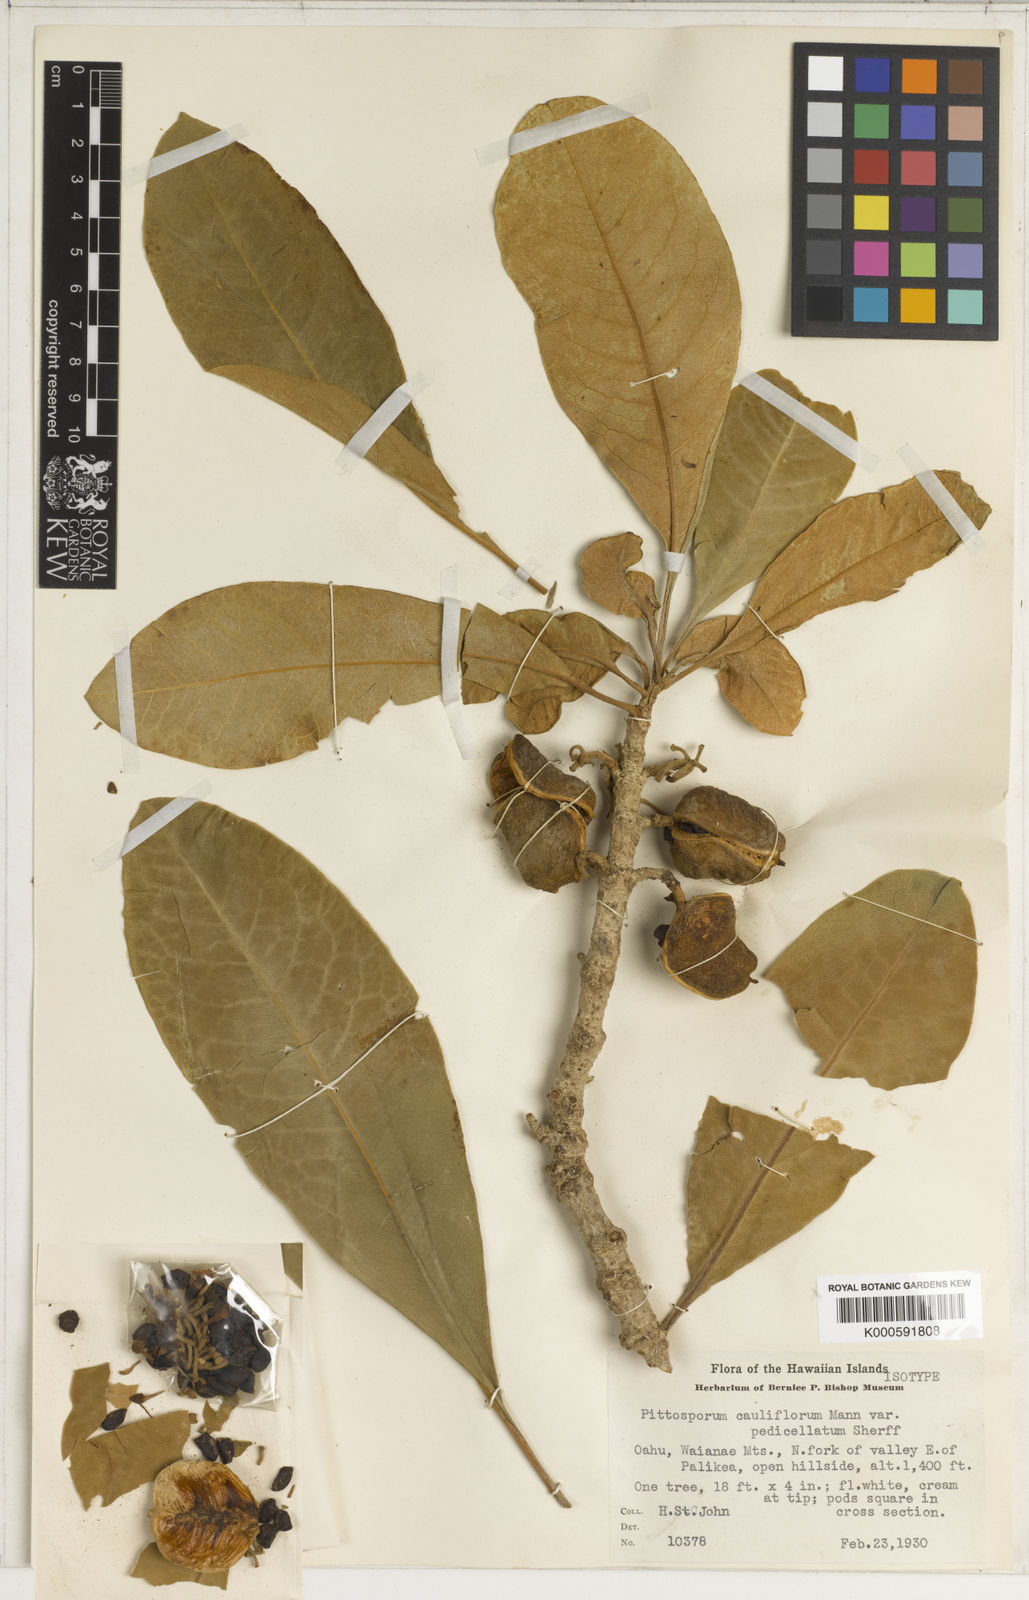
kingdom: Plantae
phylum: Tracheophyta
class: Magnoliopsida
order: Apiales
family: Pittosporaceae
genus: Pittosporum
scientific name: Pittosporum confertiflorum
